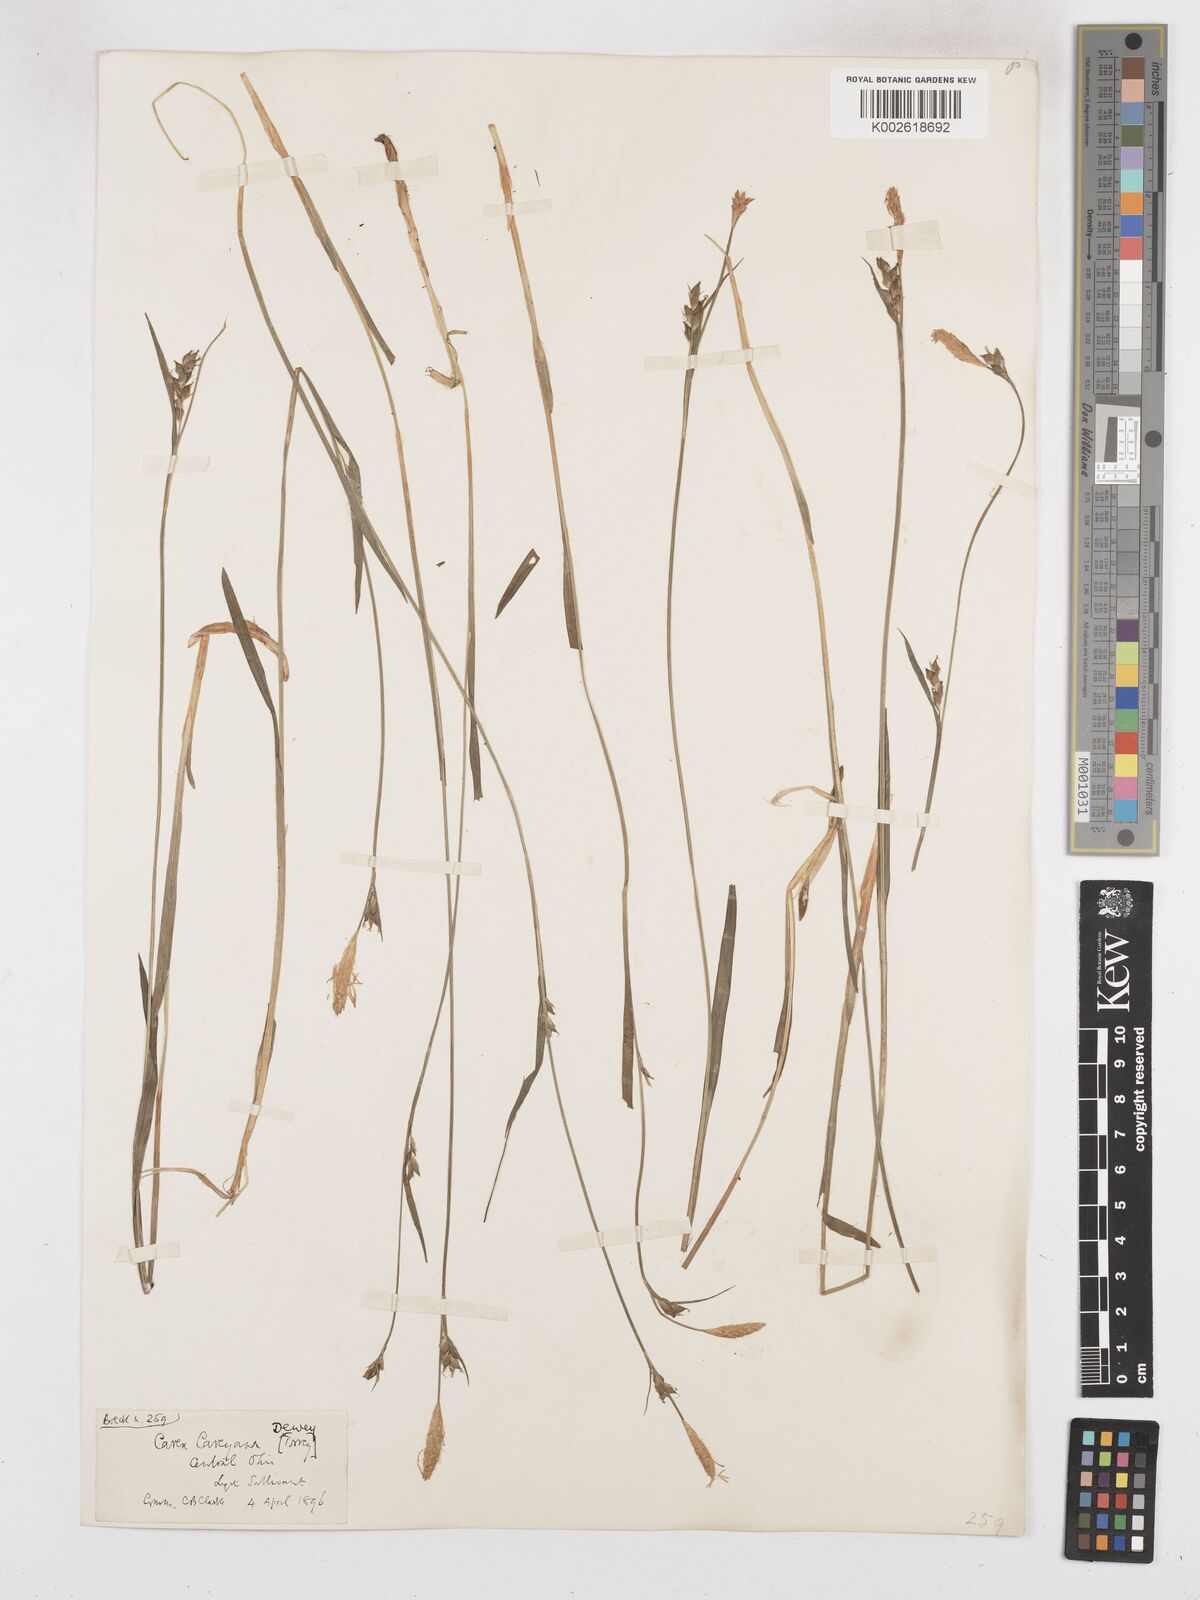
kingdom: Plantae
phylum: Tracheophyta
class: Liliopsida
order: Poales
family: Cyperaceae
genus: Carex
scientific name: Carex careyana
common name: Carey's sedge
